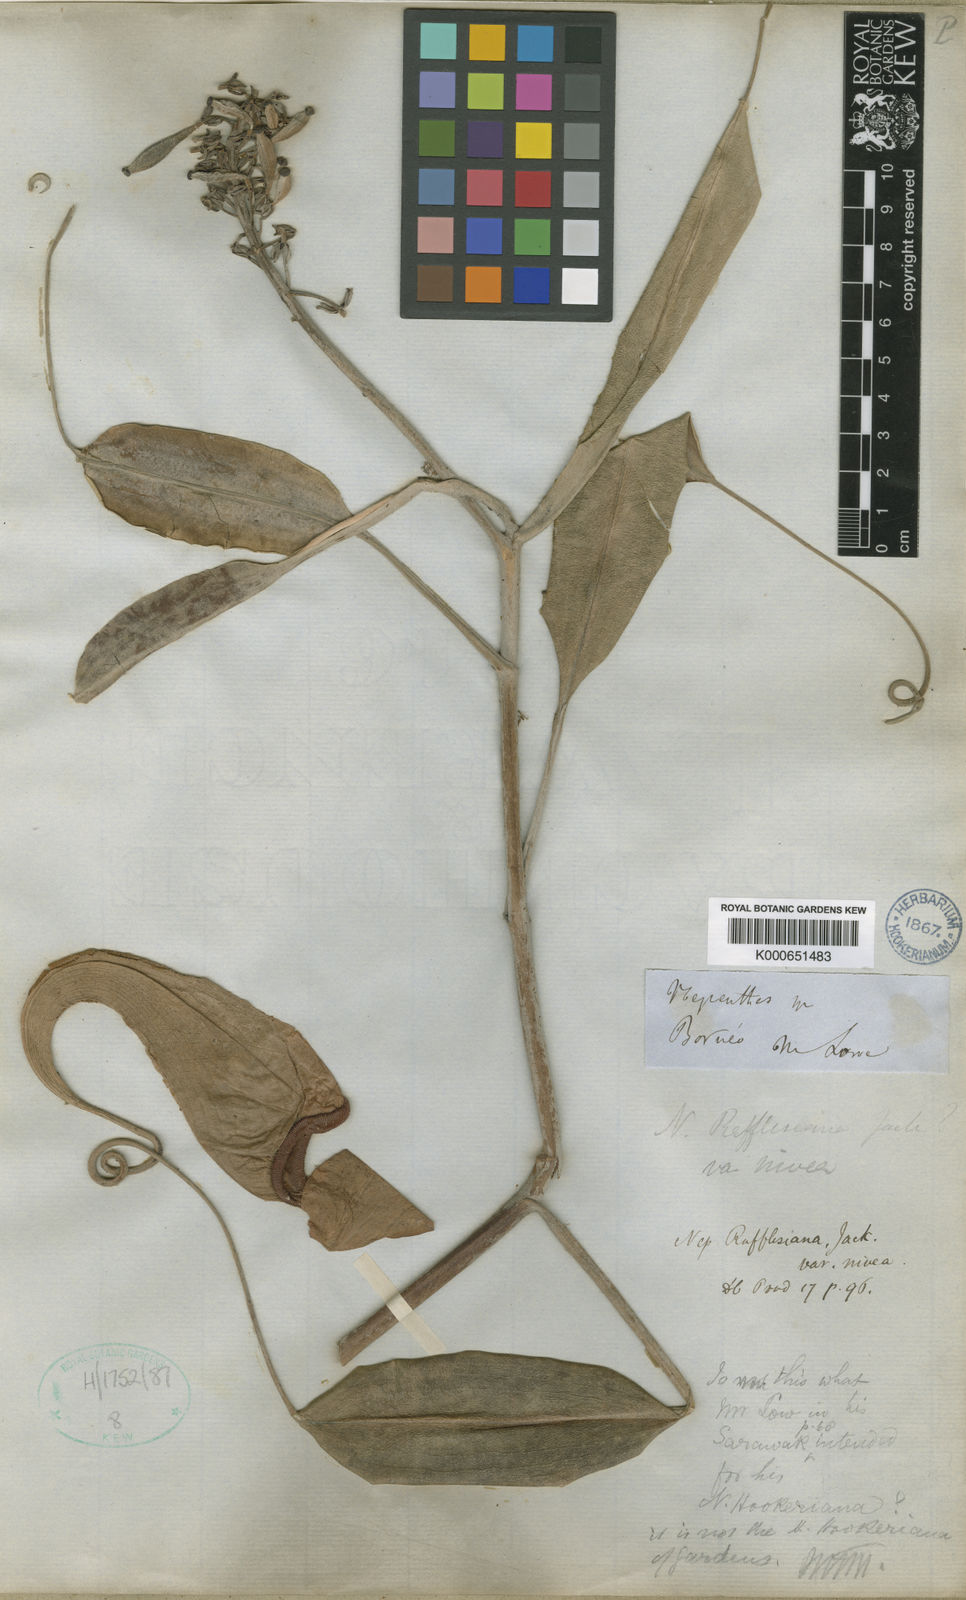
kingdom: Plantae
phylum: Tracheophyta
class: Magnoliopsida
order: Caryophyllales
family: Nepenthaceae
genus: Nepenthes
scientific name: Nepenthes rafflesiana
